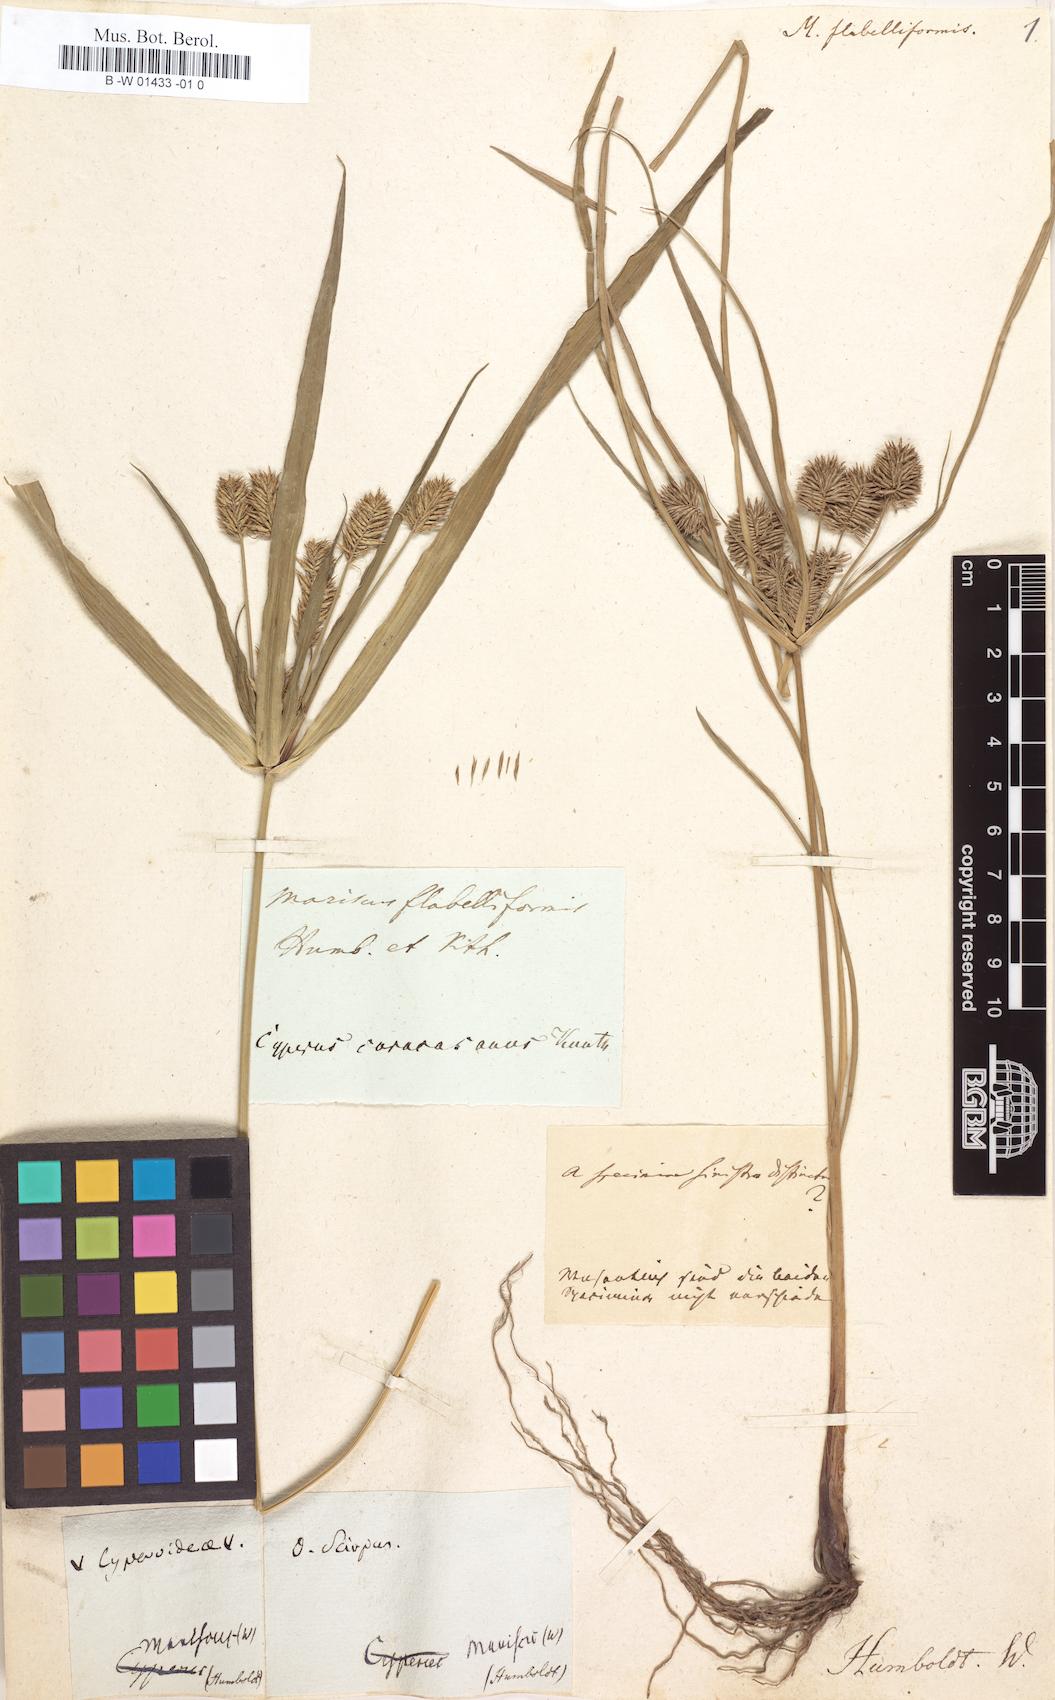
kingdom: Plantae
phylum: Tracheophyta
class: Liliopsida
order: Poales
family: Cyperaceae
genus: Cyperus
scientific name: Cyperus tenuis
